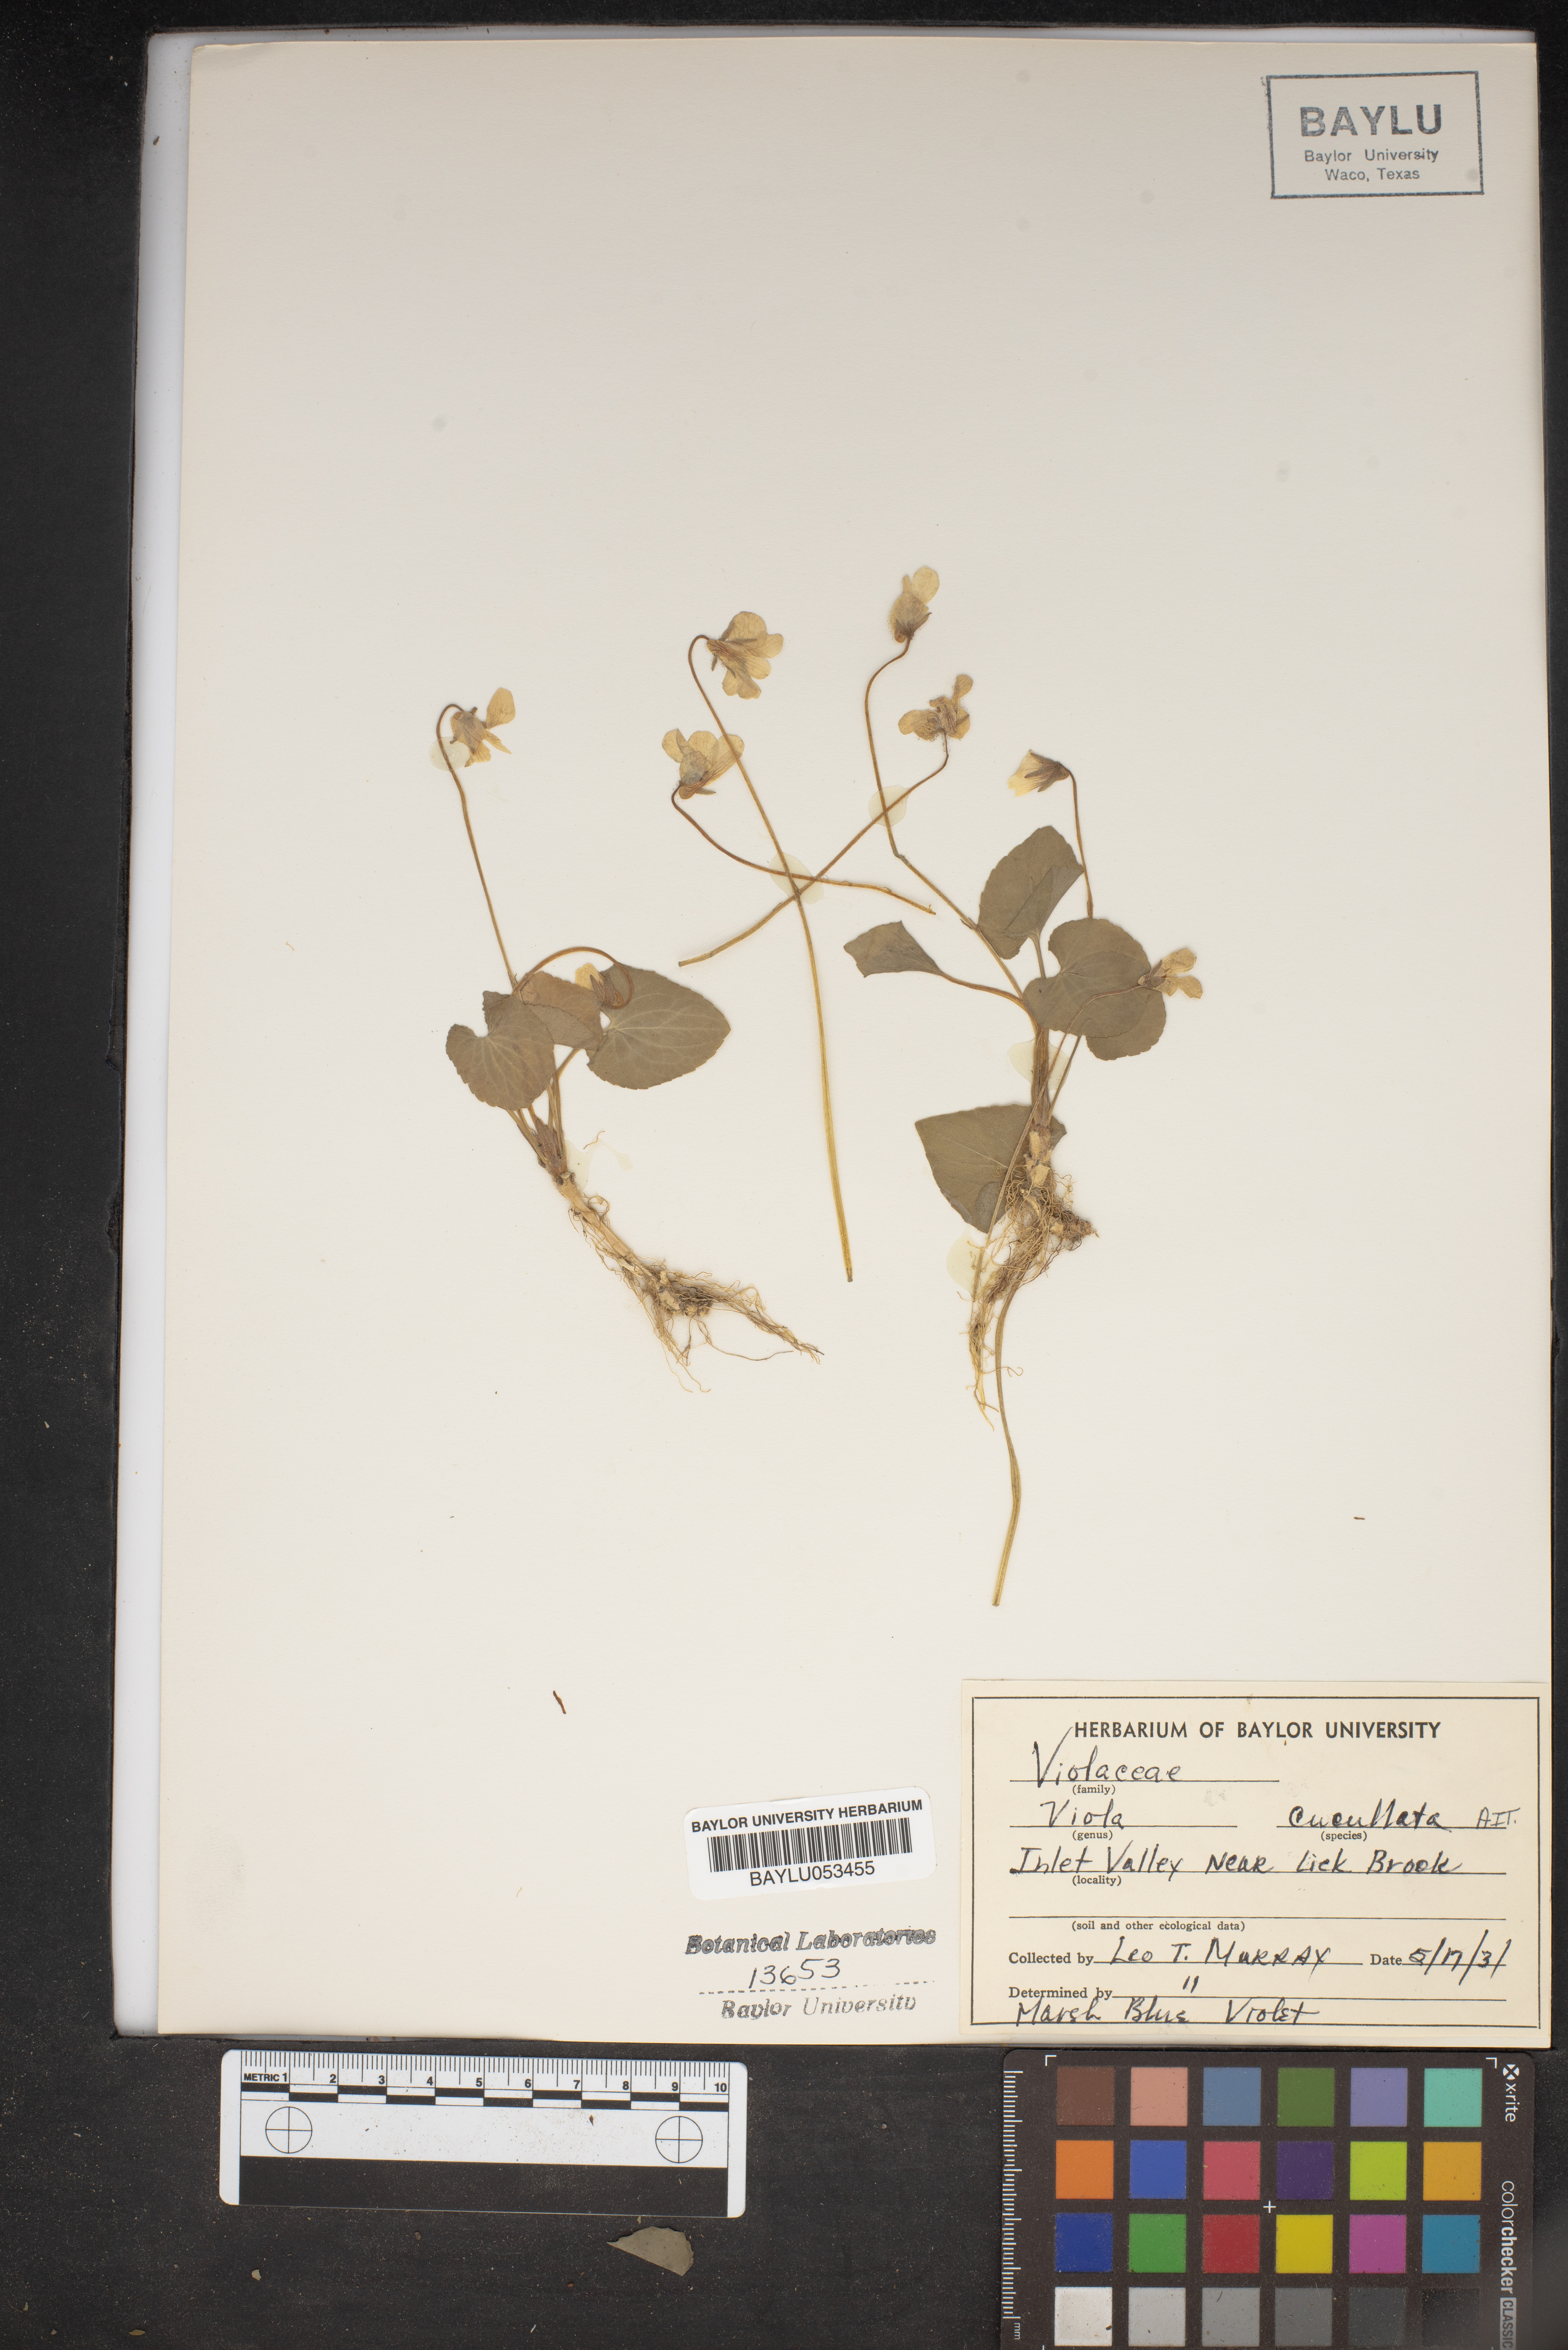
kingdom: Plantae
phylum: Tracheophyta
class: Magnoliopsida
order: Malpighiales
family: Violaceae
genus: Viola
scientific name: Viola cucullata
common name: Marsh blue violet
